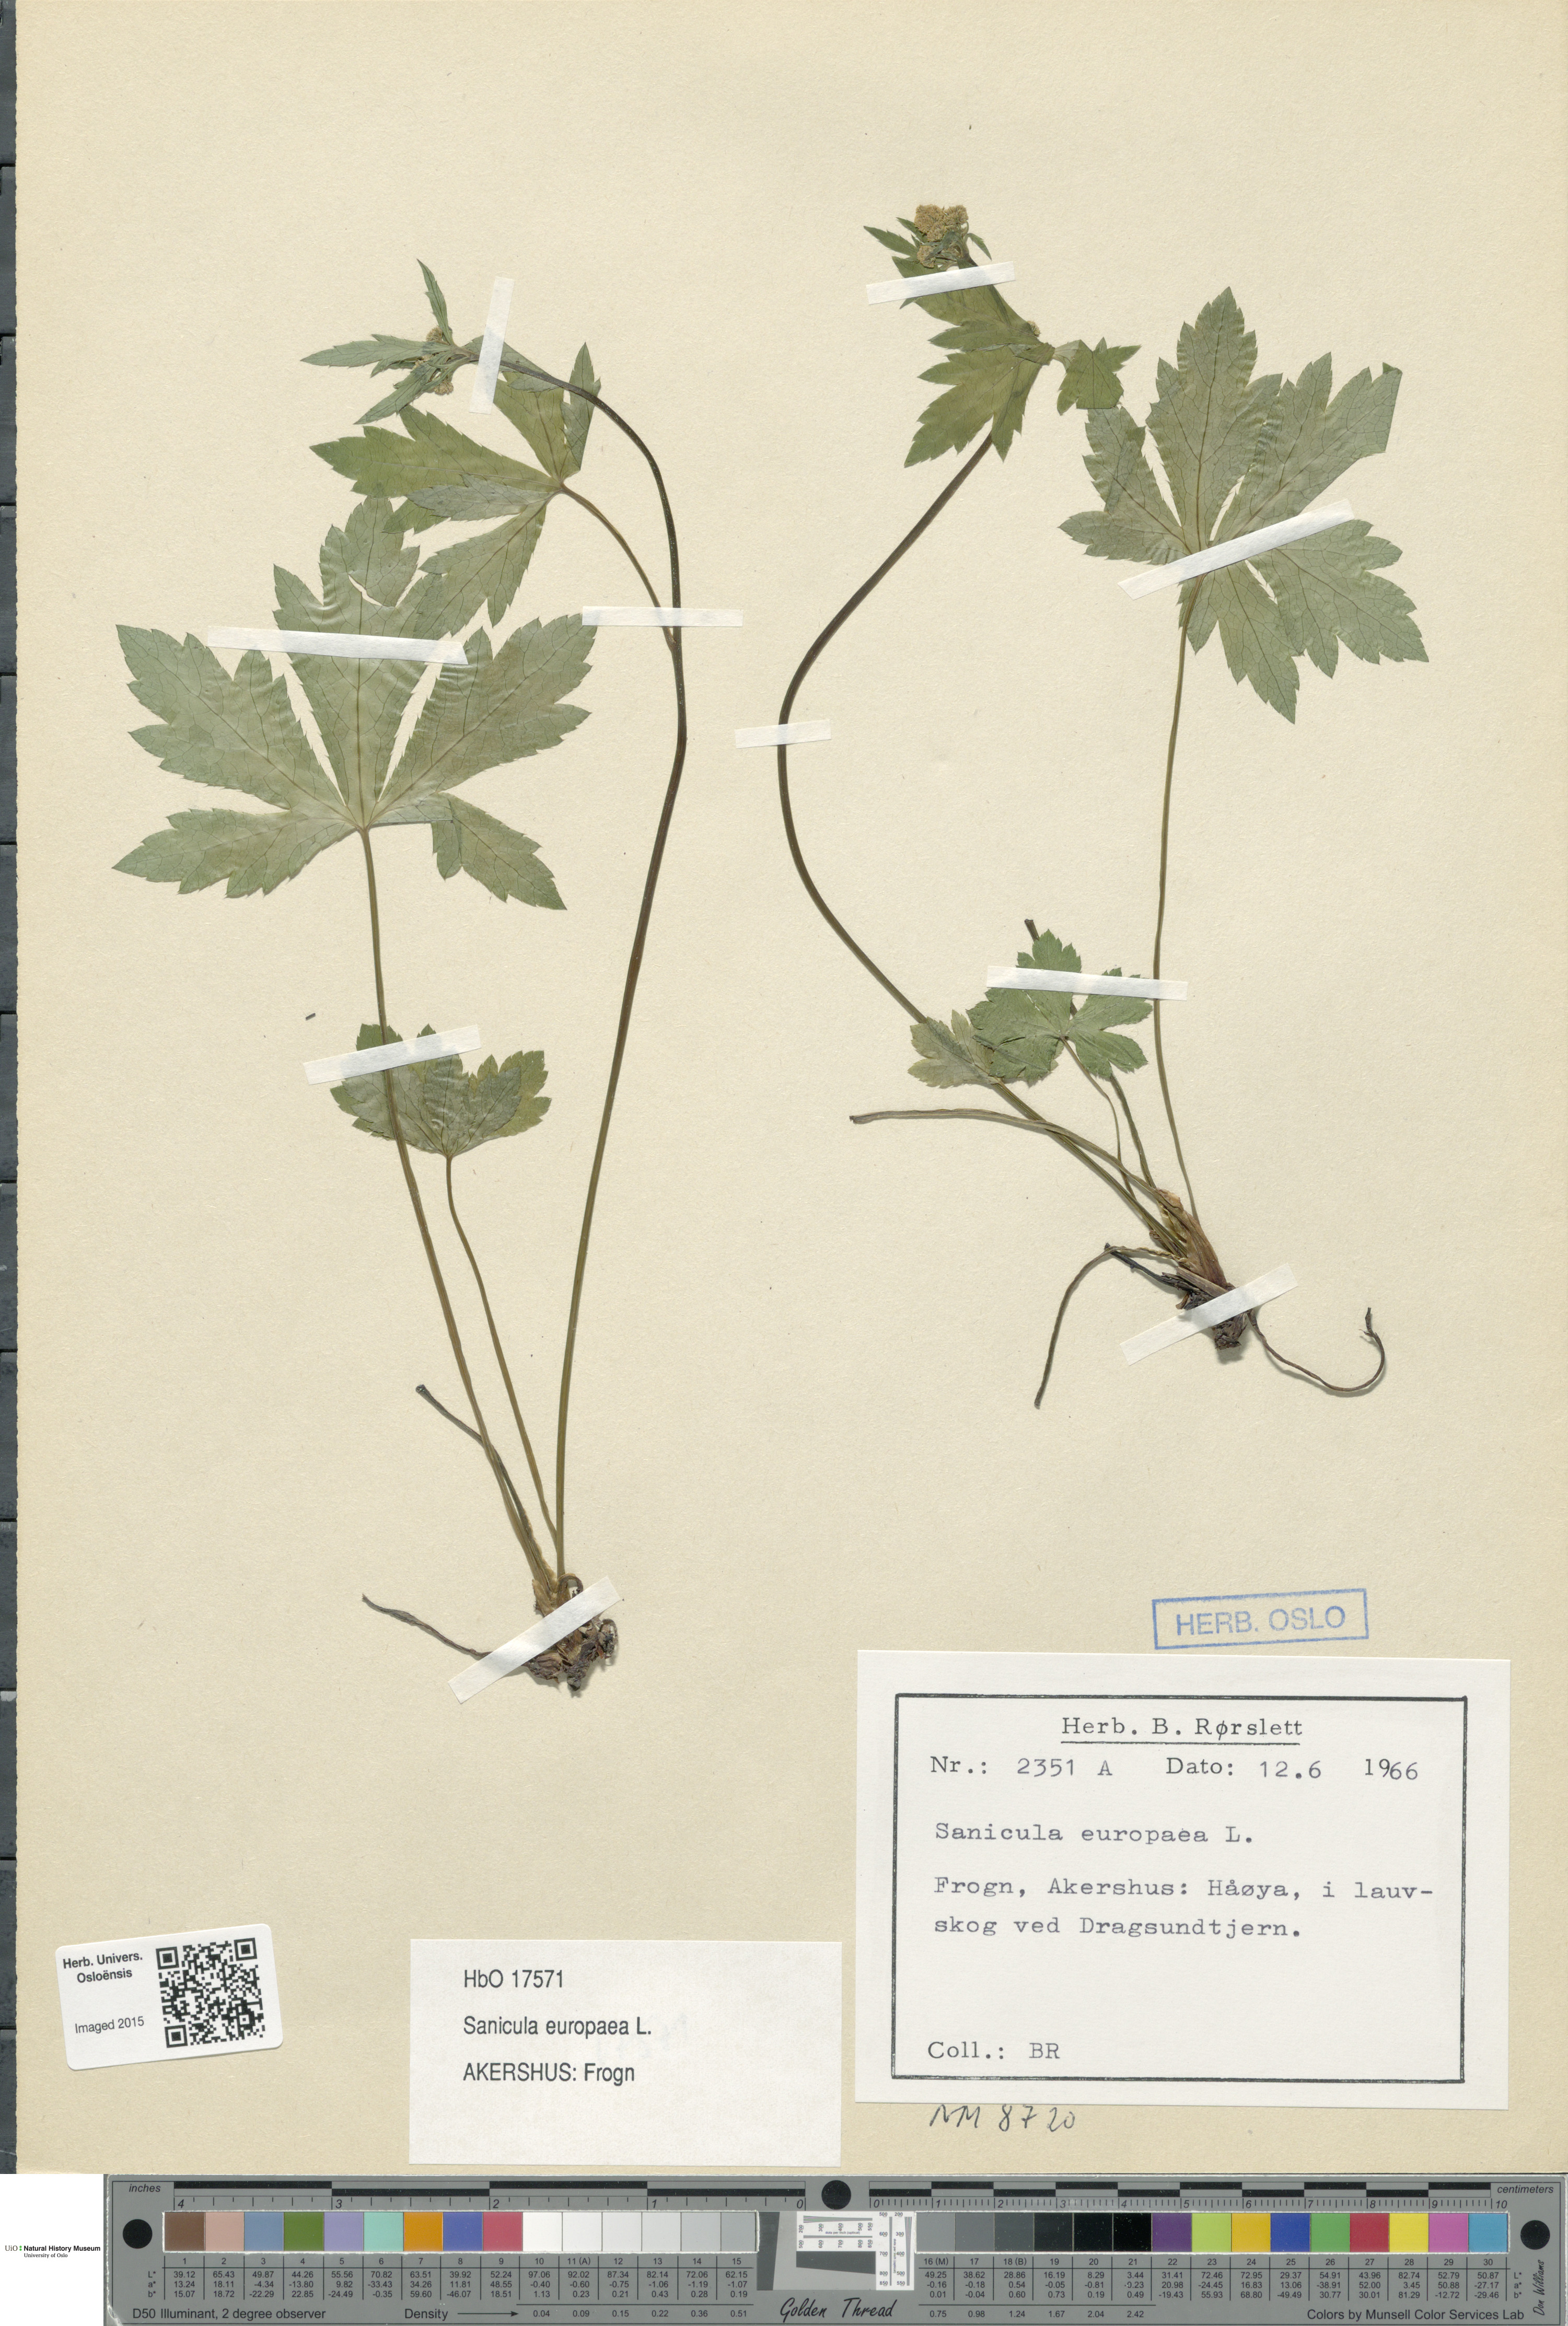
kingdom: Plantae
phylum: Tracheophyta
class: Magnoliopsida
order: Apiales
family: Apiaceae
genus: Sanicula
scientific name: Sanicula europaea
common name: Sanicle
